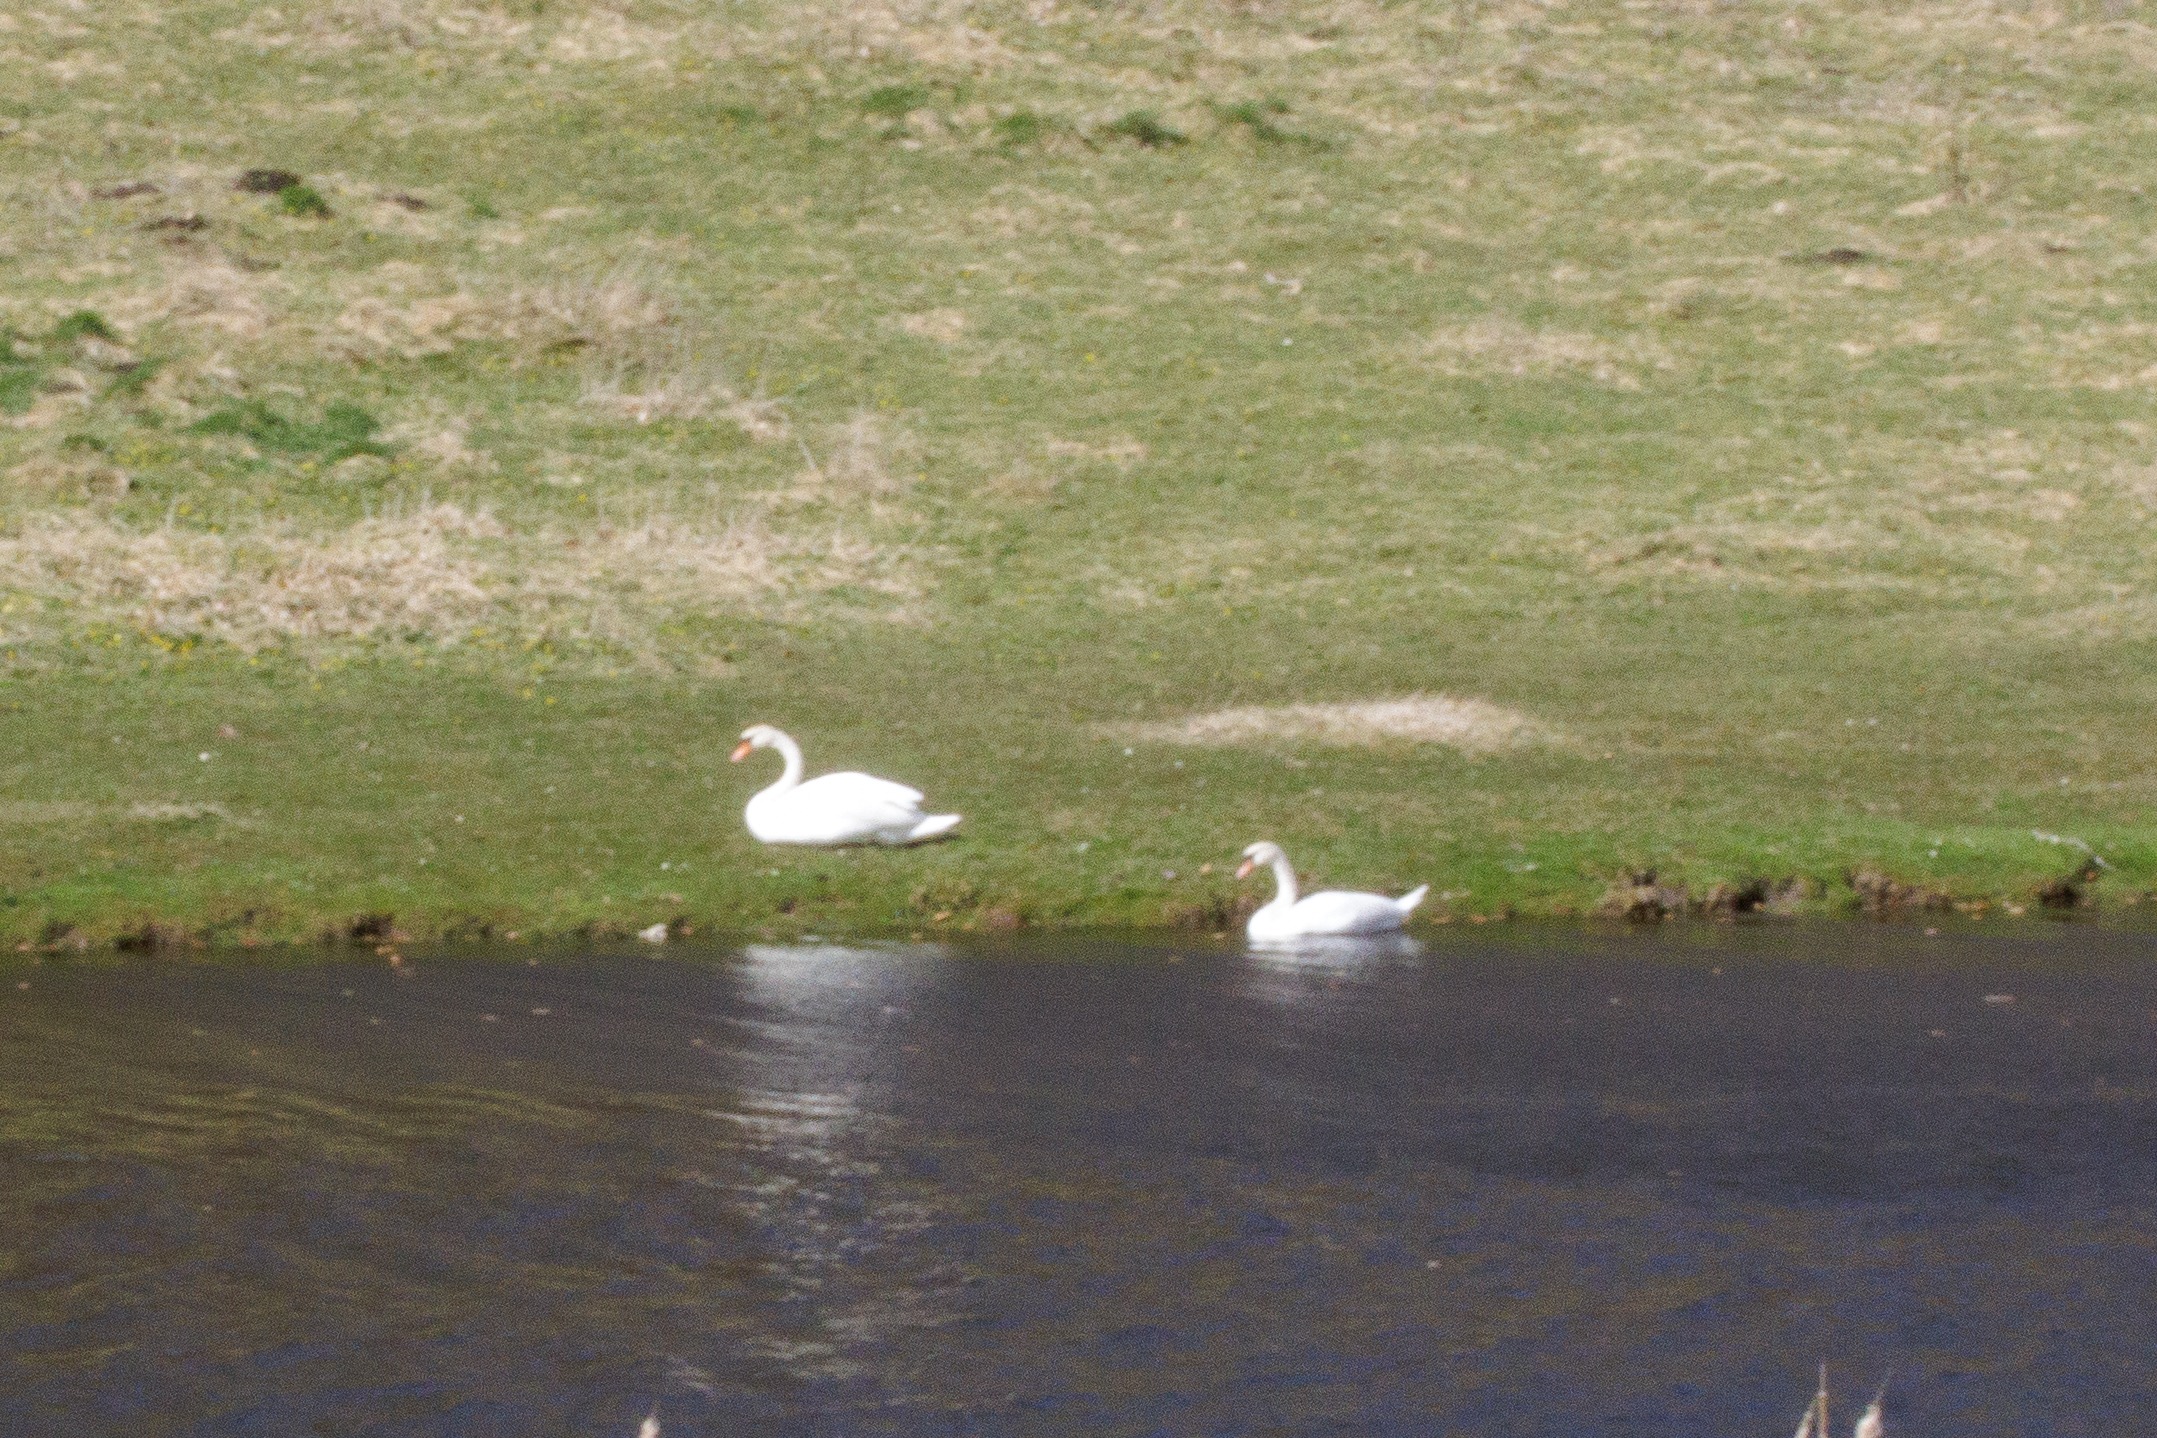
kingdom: Animalia
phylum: Chordata
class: Aves
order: Anseriformes
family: Anatidae
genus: Cygnus
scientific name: Cygnus olor
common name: Knopsvane
